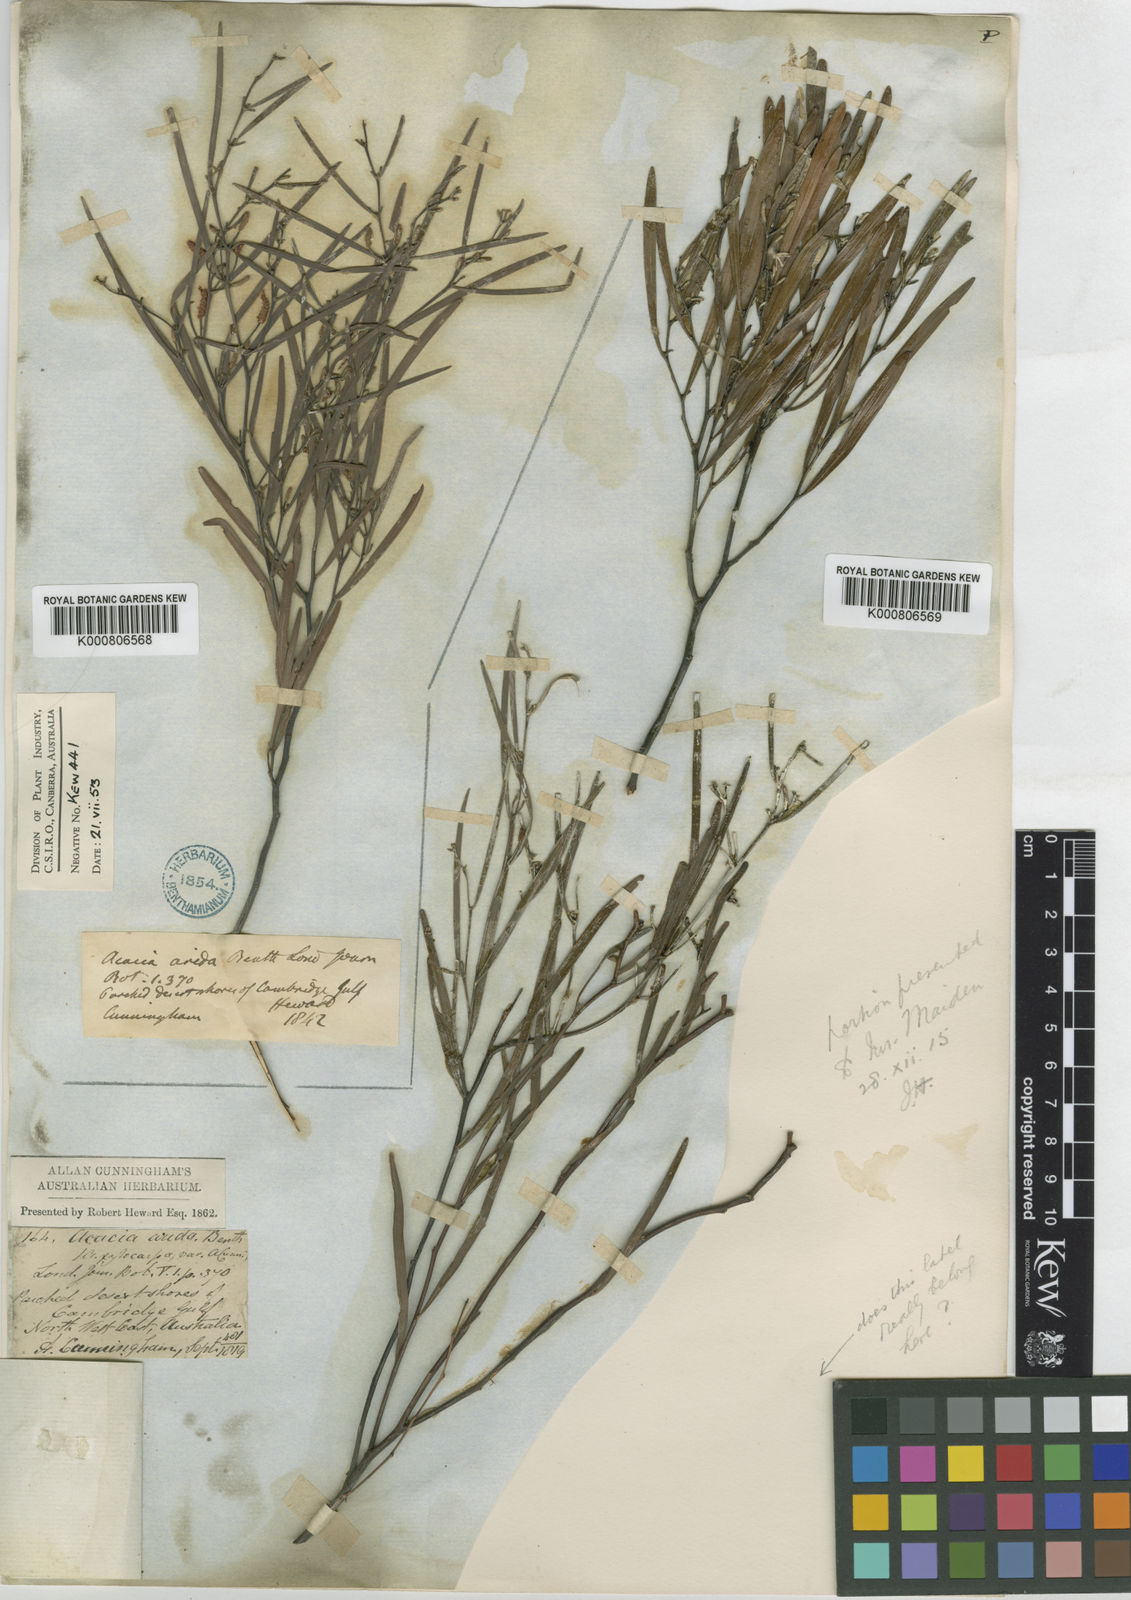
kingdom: Plantae
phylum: Tracheophyta
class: Magnoliopsida
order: Fabales
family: Fabaceae
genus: Acacia
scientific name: Acacia arida
